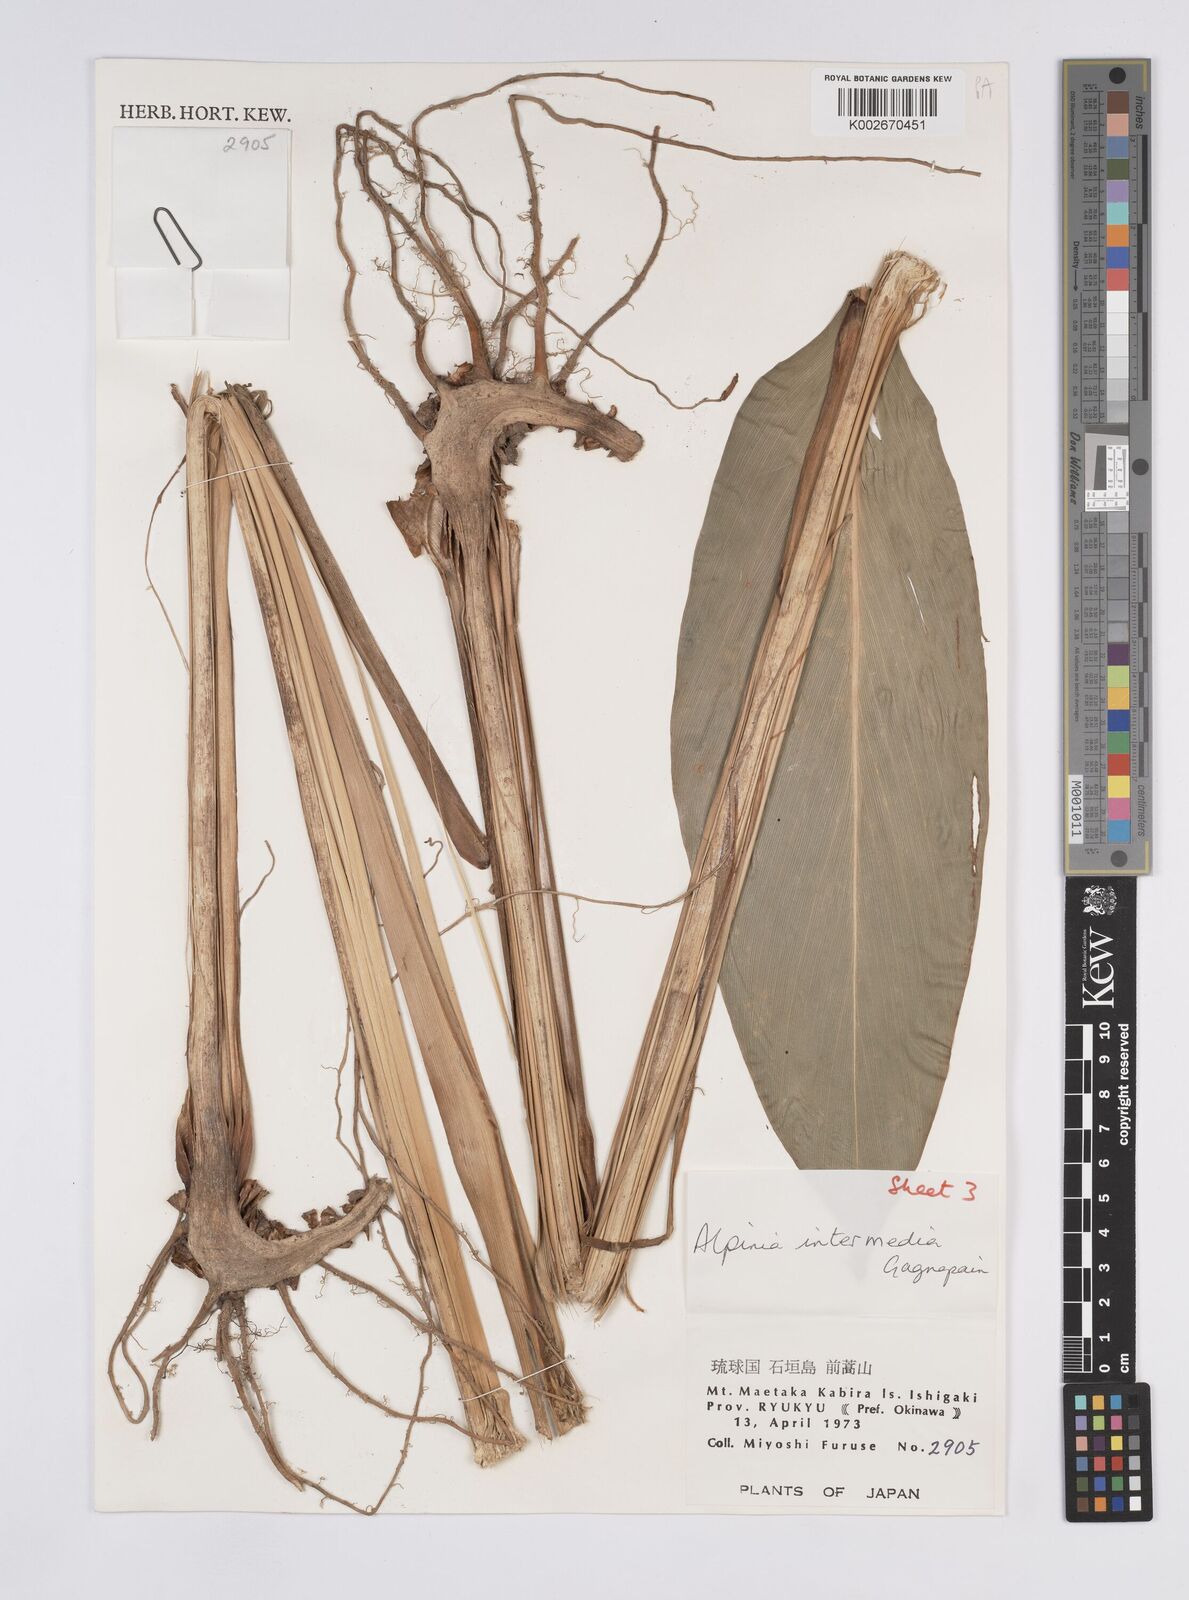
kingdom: Plantae
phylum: Tracheophyta
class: Liliopsida
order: Zingiberales
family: Zingiberaceae
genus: Alpinia
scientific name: Alpinia intermedia
